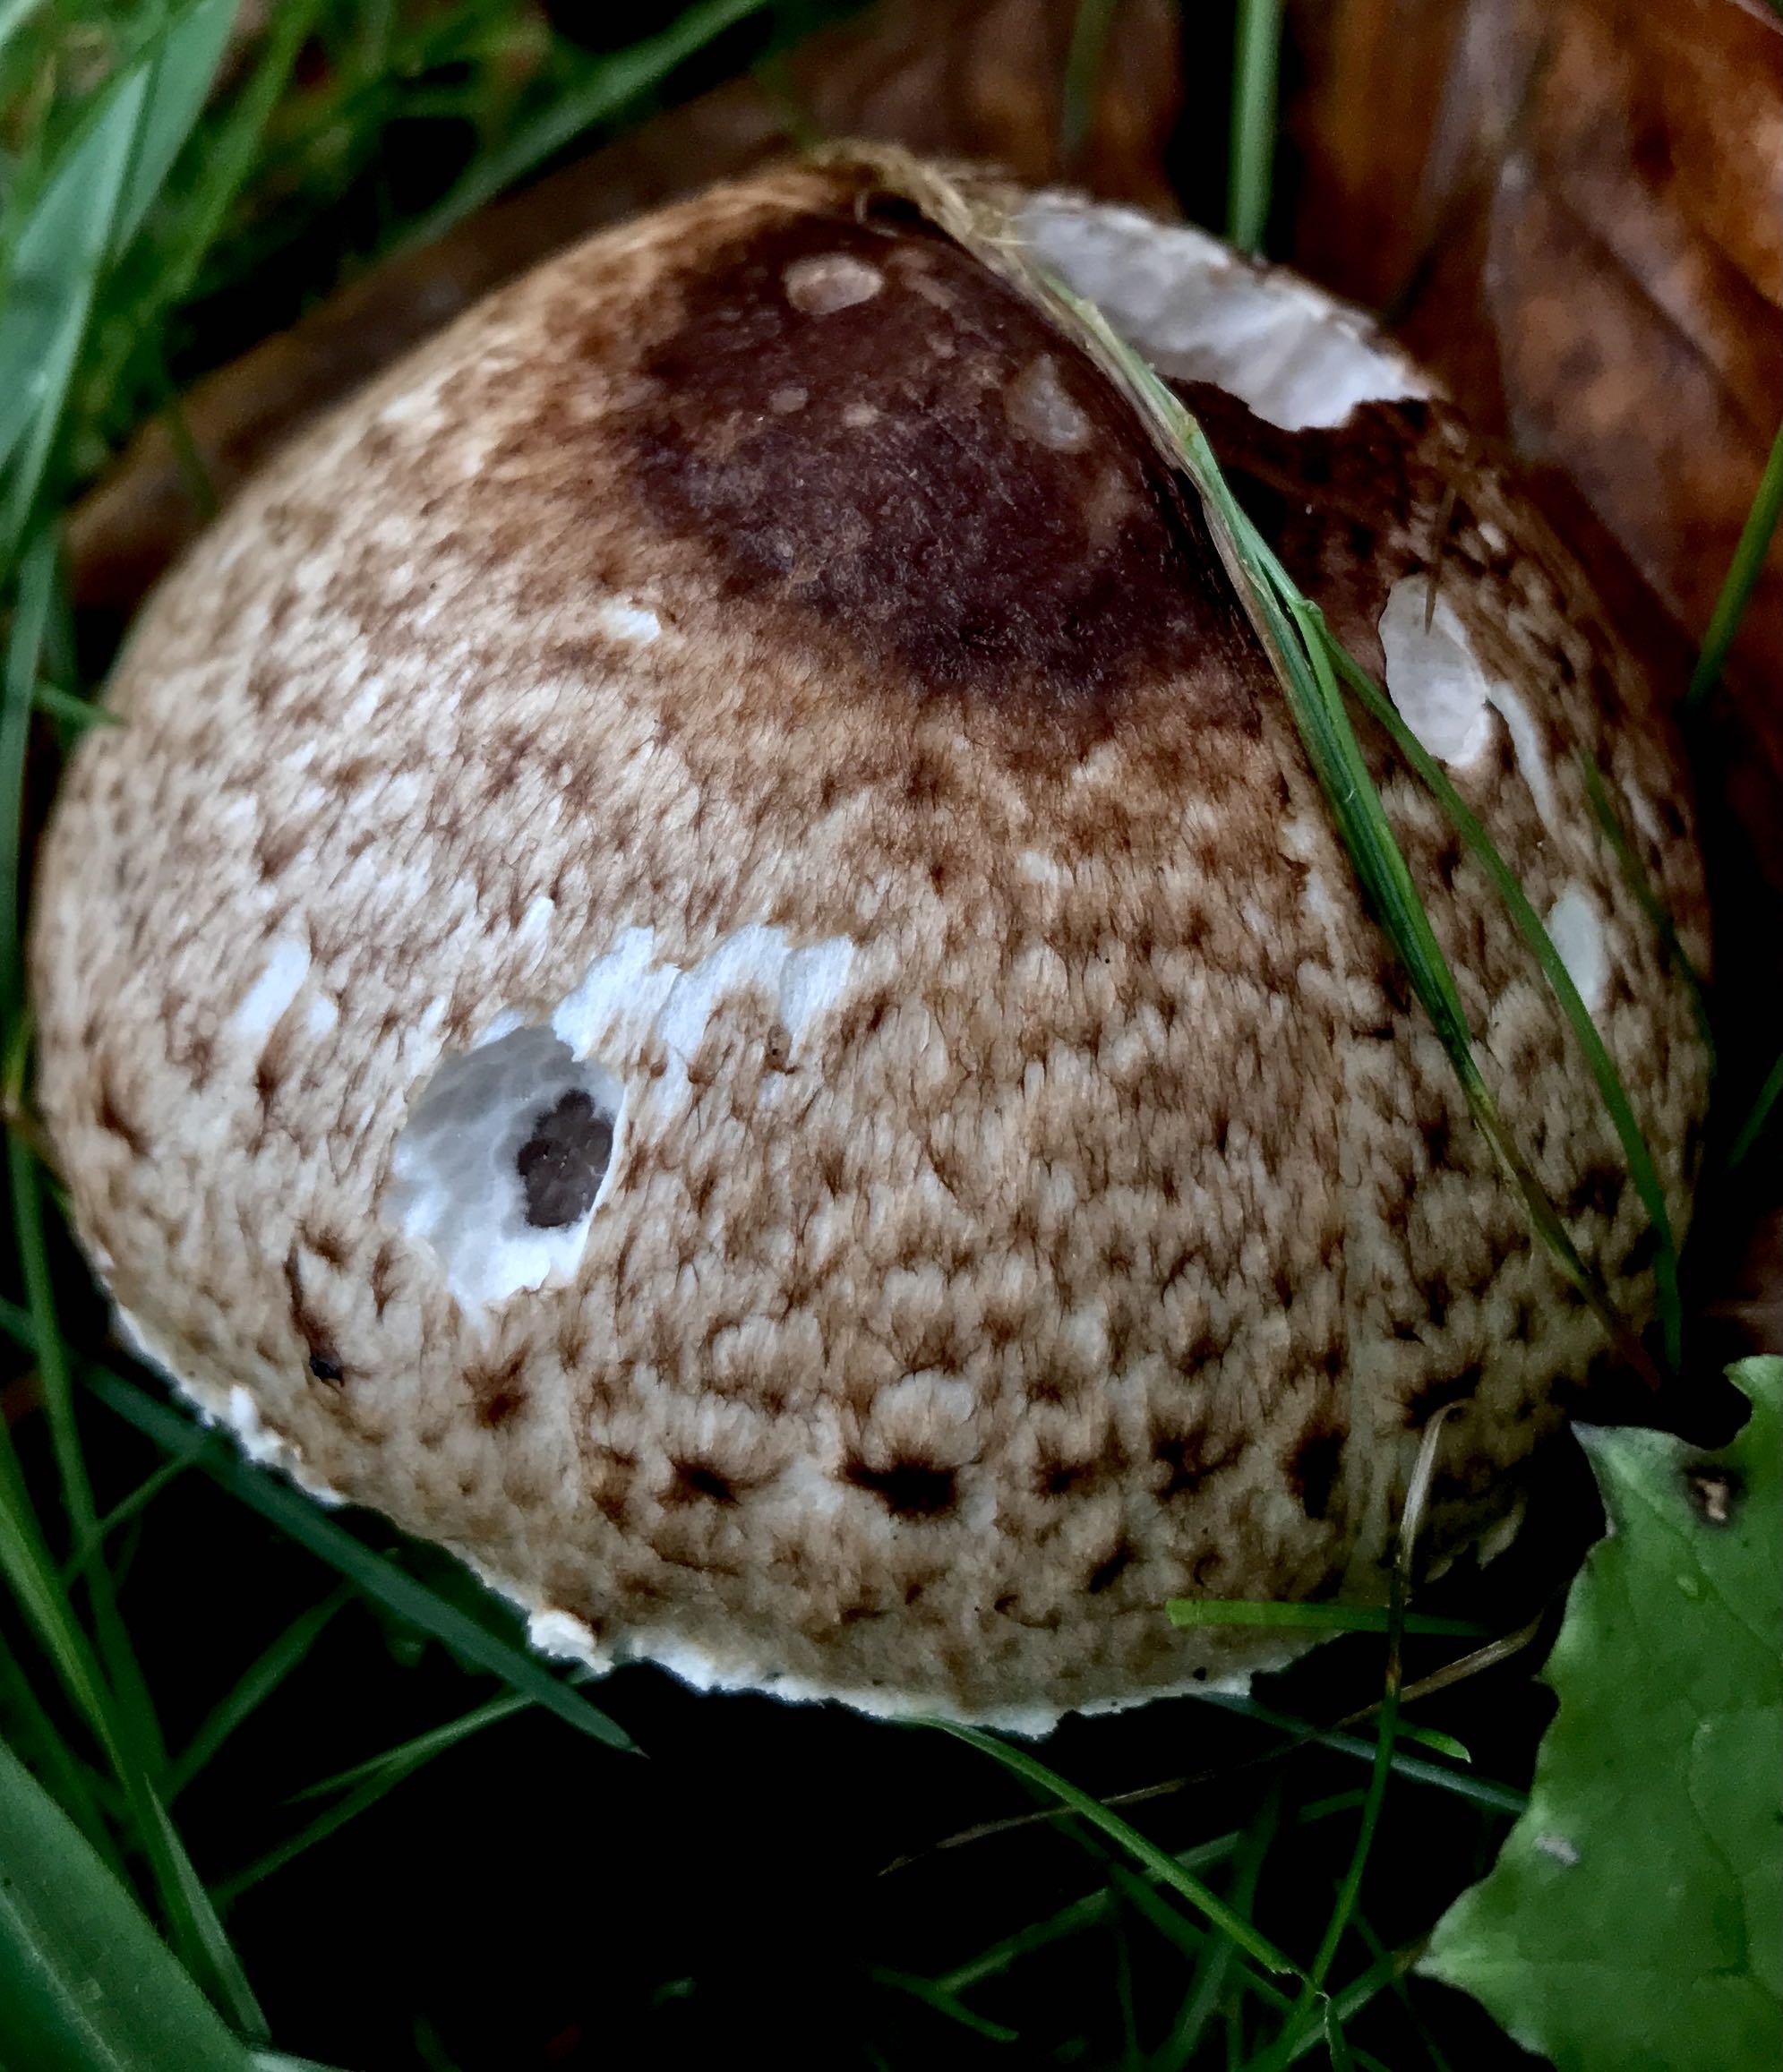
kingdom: Fungi
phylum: Basidiomycota
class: Agaricomycetes
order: Agaricales
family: Agaricaceae
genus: Agaricus
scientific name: Agaricus impudicus
